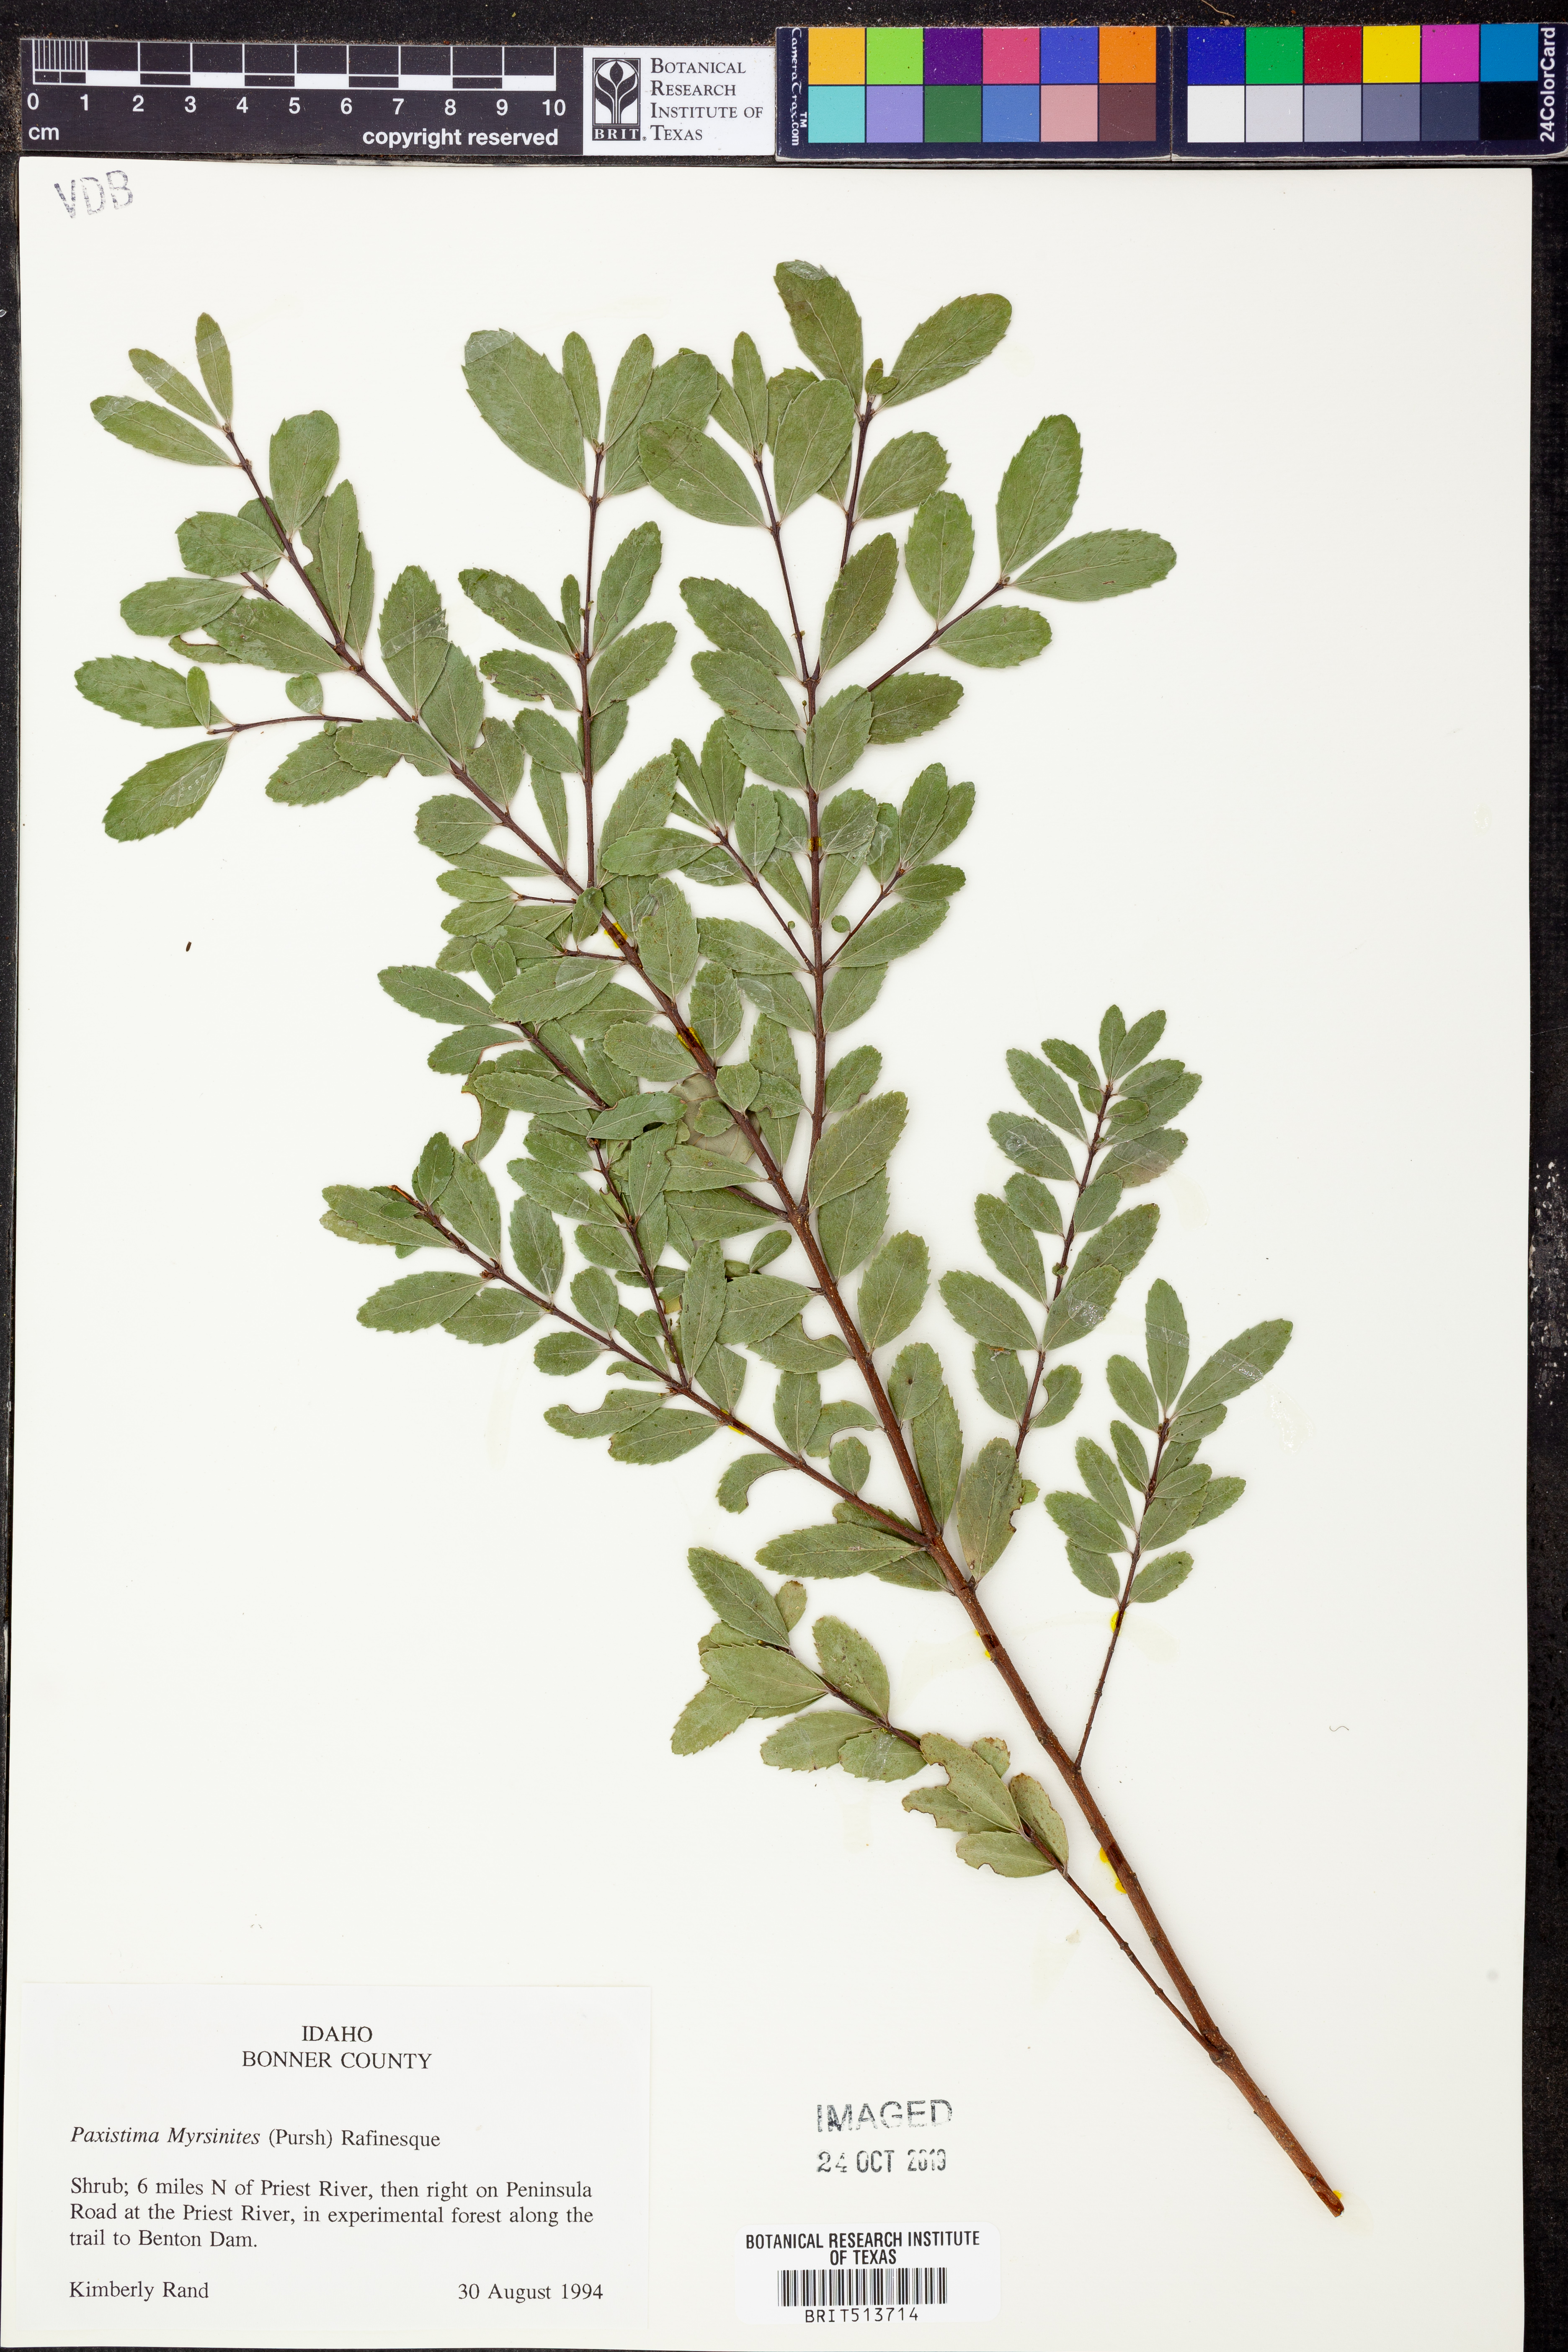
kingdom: Plantae
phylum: Tracheophyta
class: Magnoliopsida
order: Celastrales
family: Celastraceae
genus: Paxistima
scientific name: Paxistima myrsinites
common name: Mountain-lover
